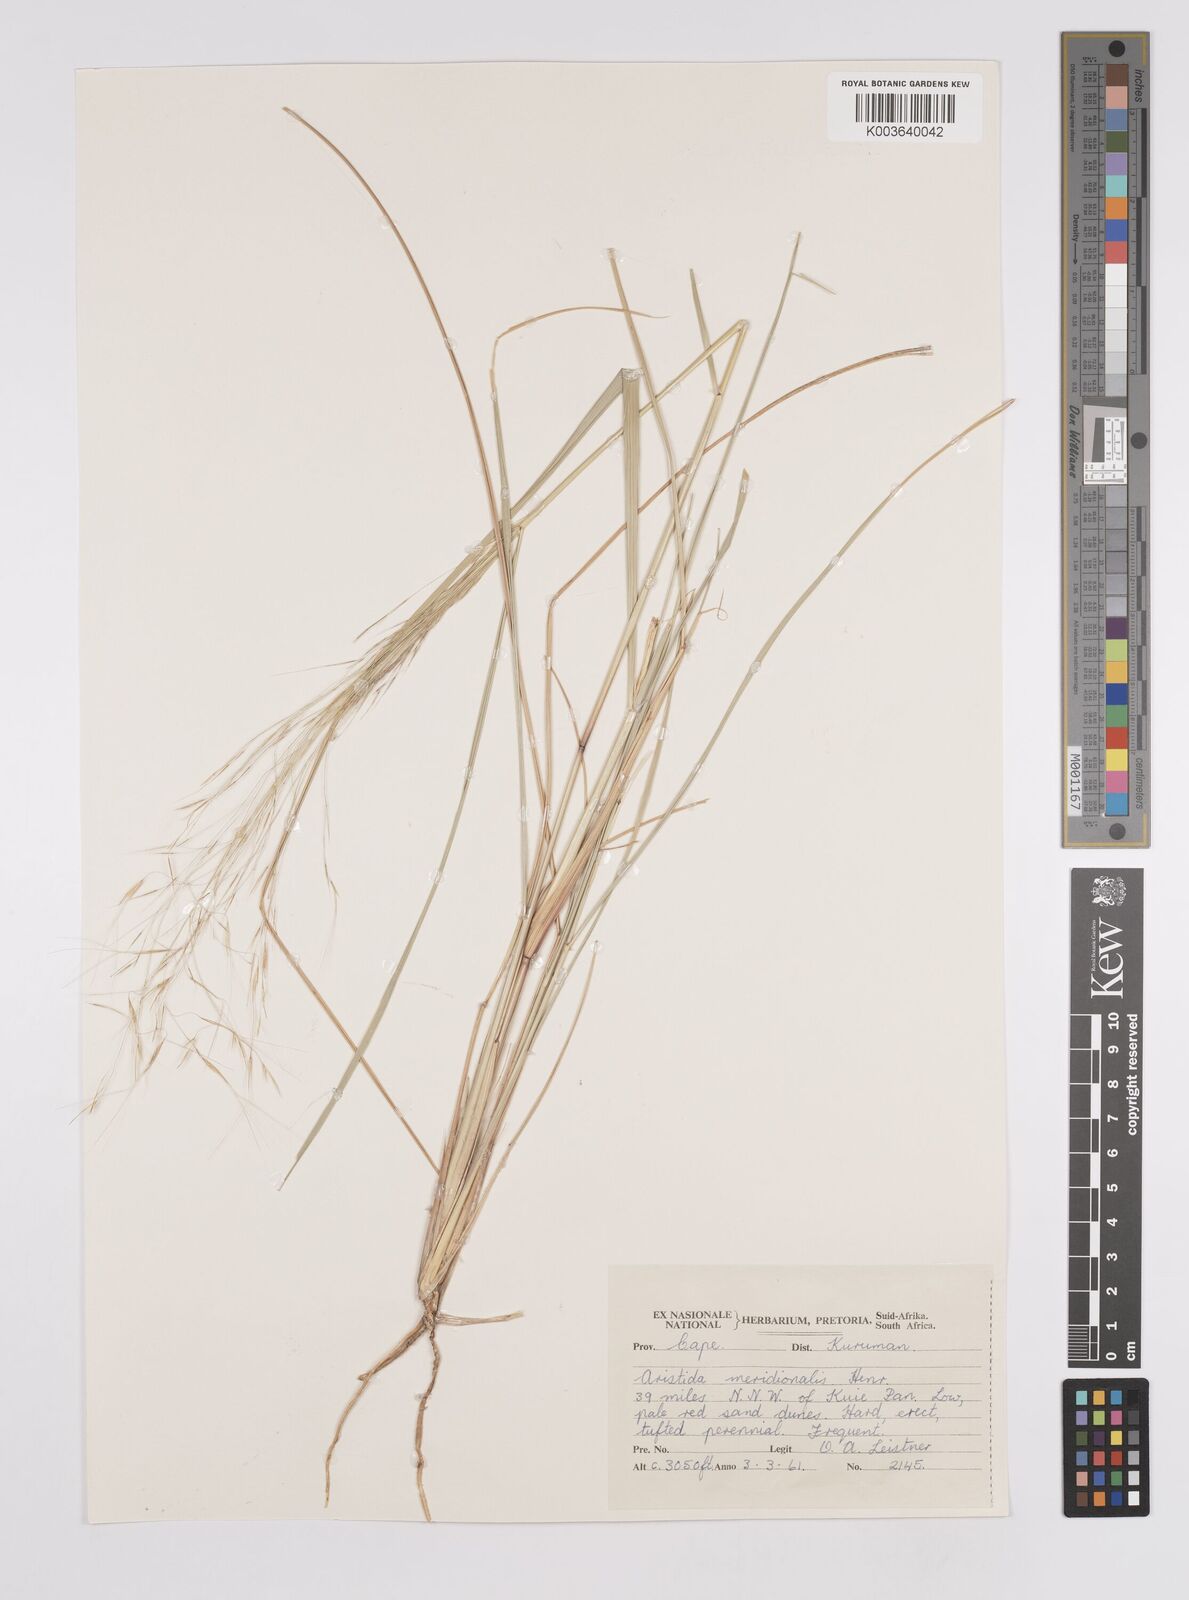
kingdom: Plantae
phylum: Tracheophyta
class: Liliopsida
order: Poales
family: Poaceae
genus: Aristida
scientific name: Aristida meridionalis
